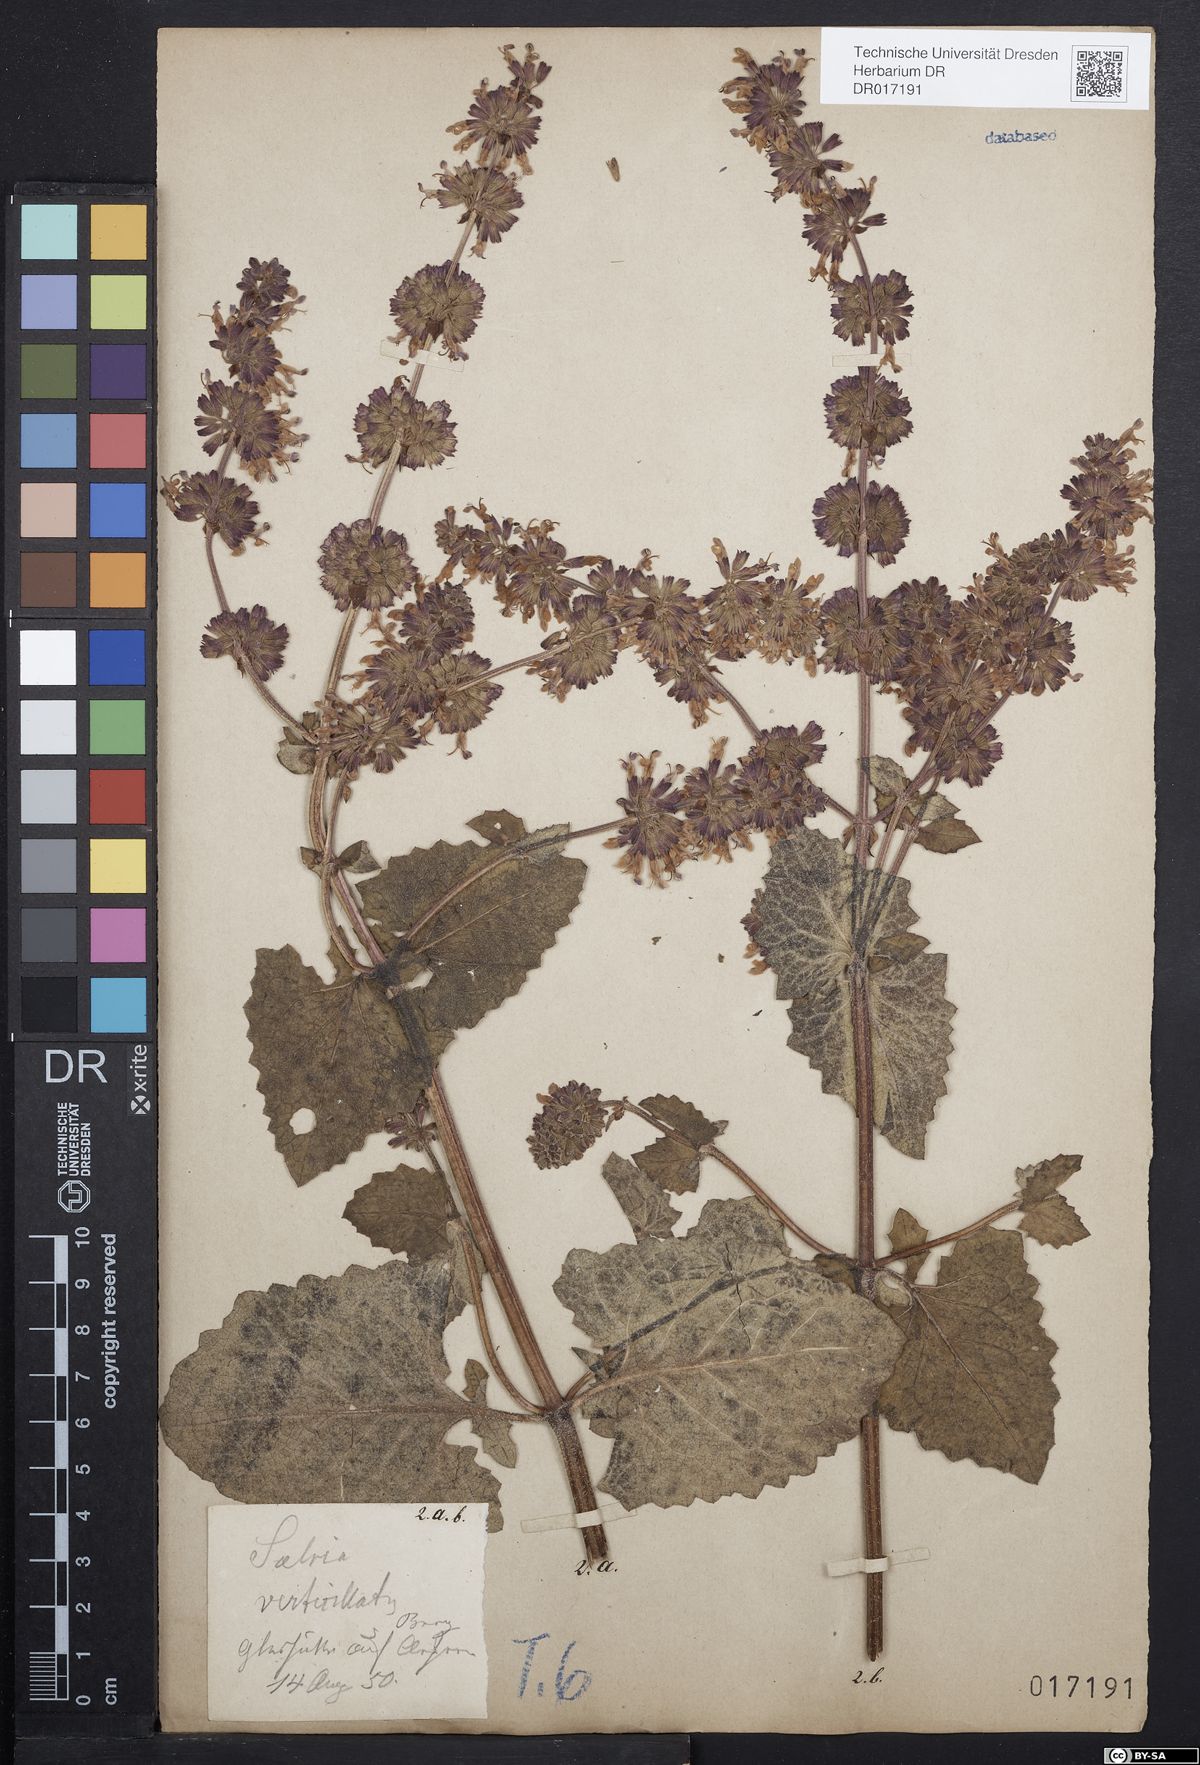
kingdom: Plantae
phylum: Tracheophyta
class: Magnoliopsida
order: Lamiales
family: Lamiaceae
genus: Salvia
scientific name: Salvia verticillata
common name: Whorled clary
